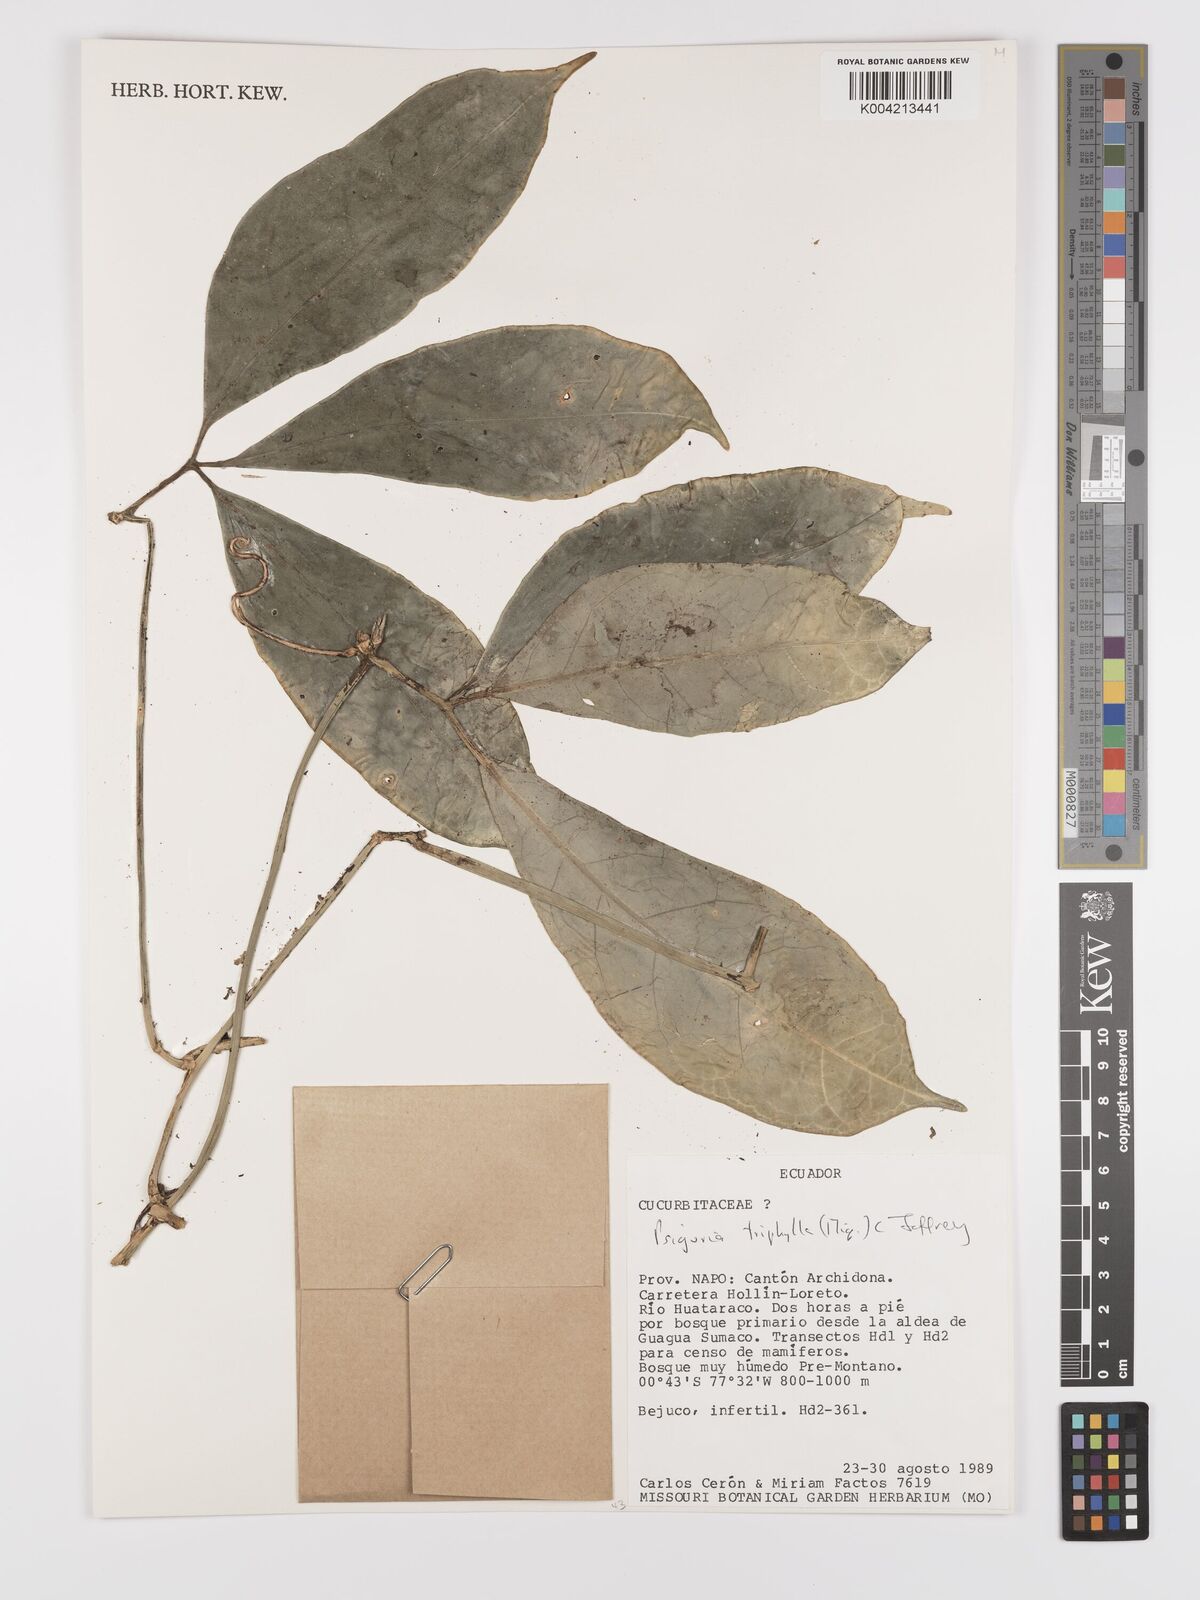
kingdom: Plantae
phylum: Tracheophyta
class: Magnoliopsida
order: Cucurbitales
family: Cucurbitaceae
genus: Psiguria
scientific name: Psiguria triphylla
